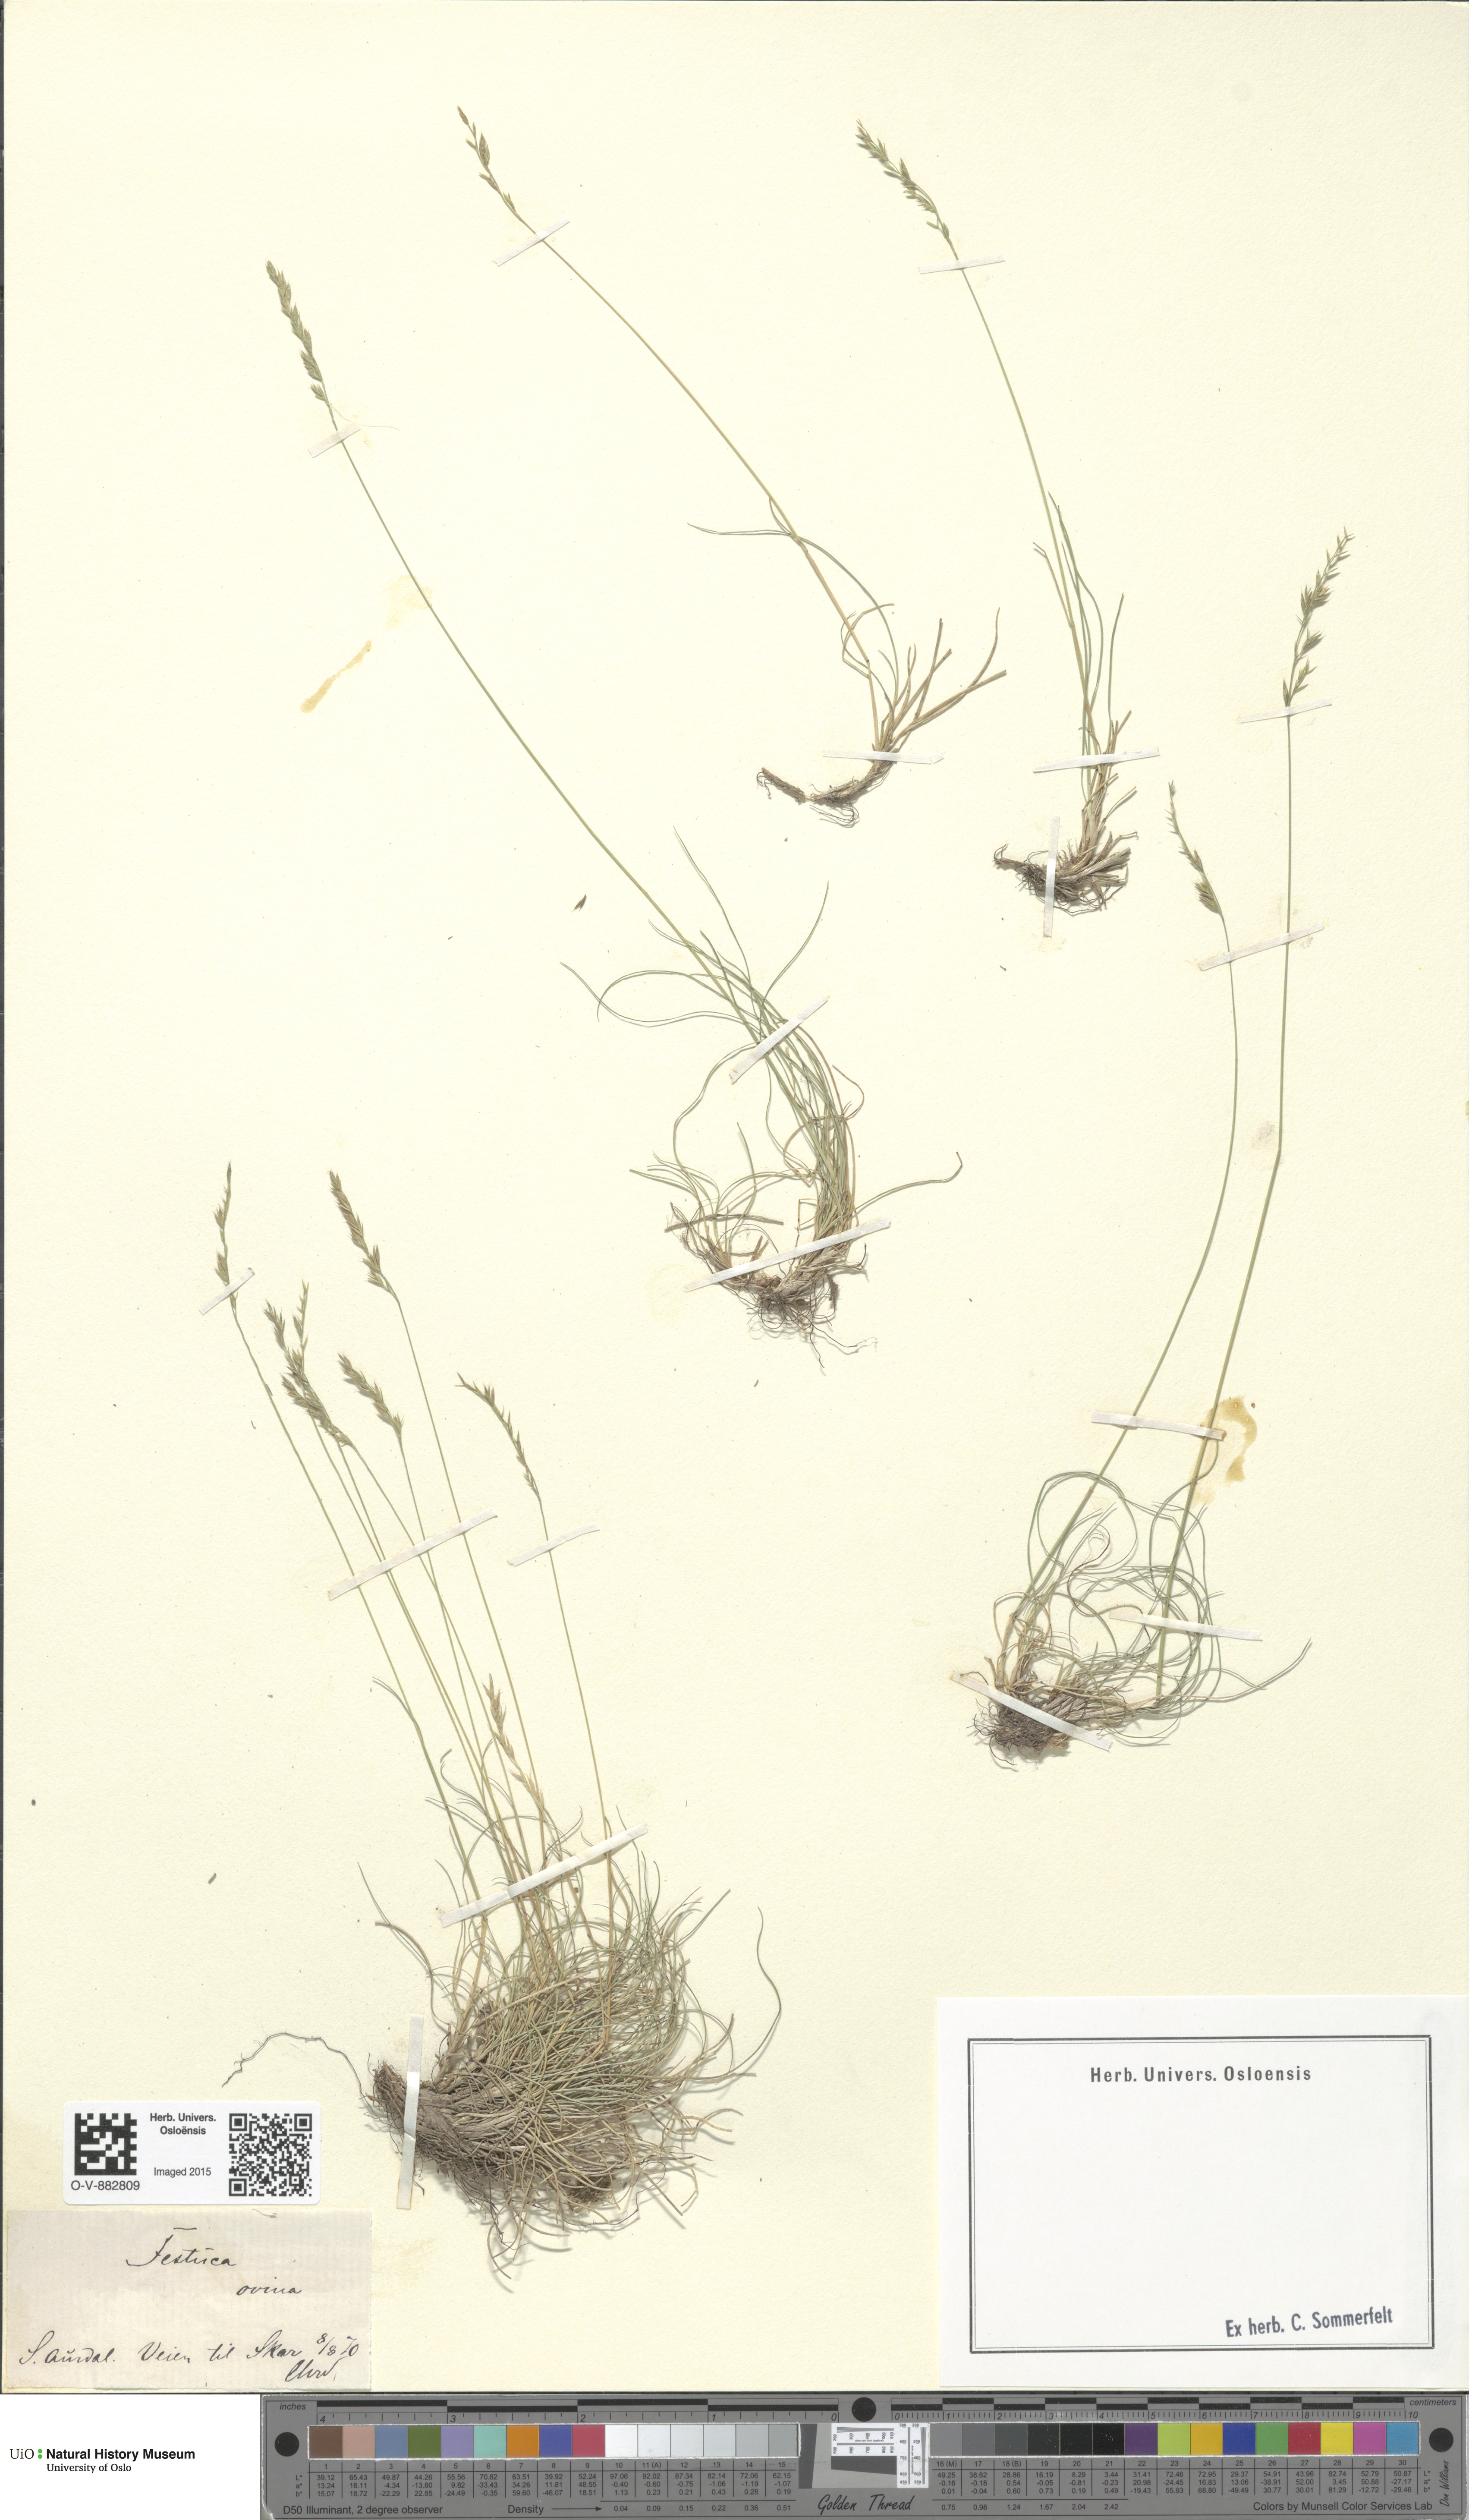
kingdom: Plantae
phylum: Tracheophyta
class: Liliopsida
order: Poales
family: Poaceae
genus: Festuca
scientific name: Festuca ovina
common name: Sheep fescue
